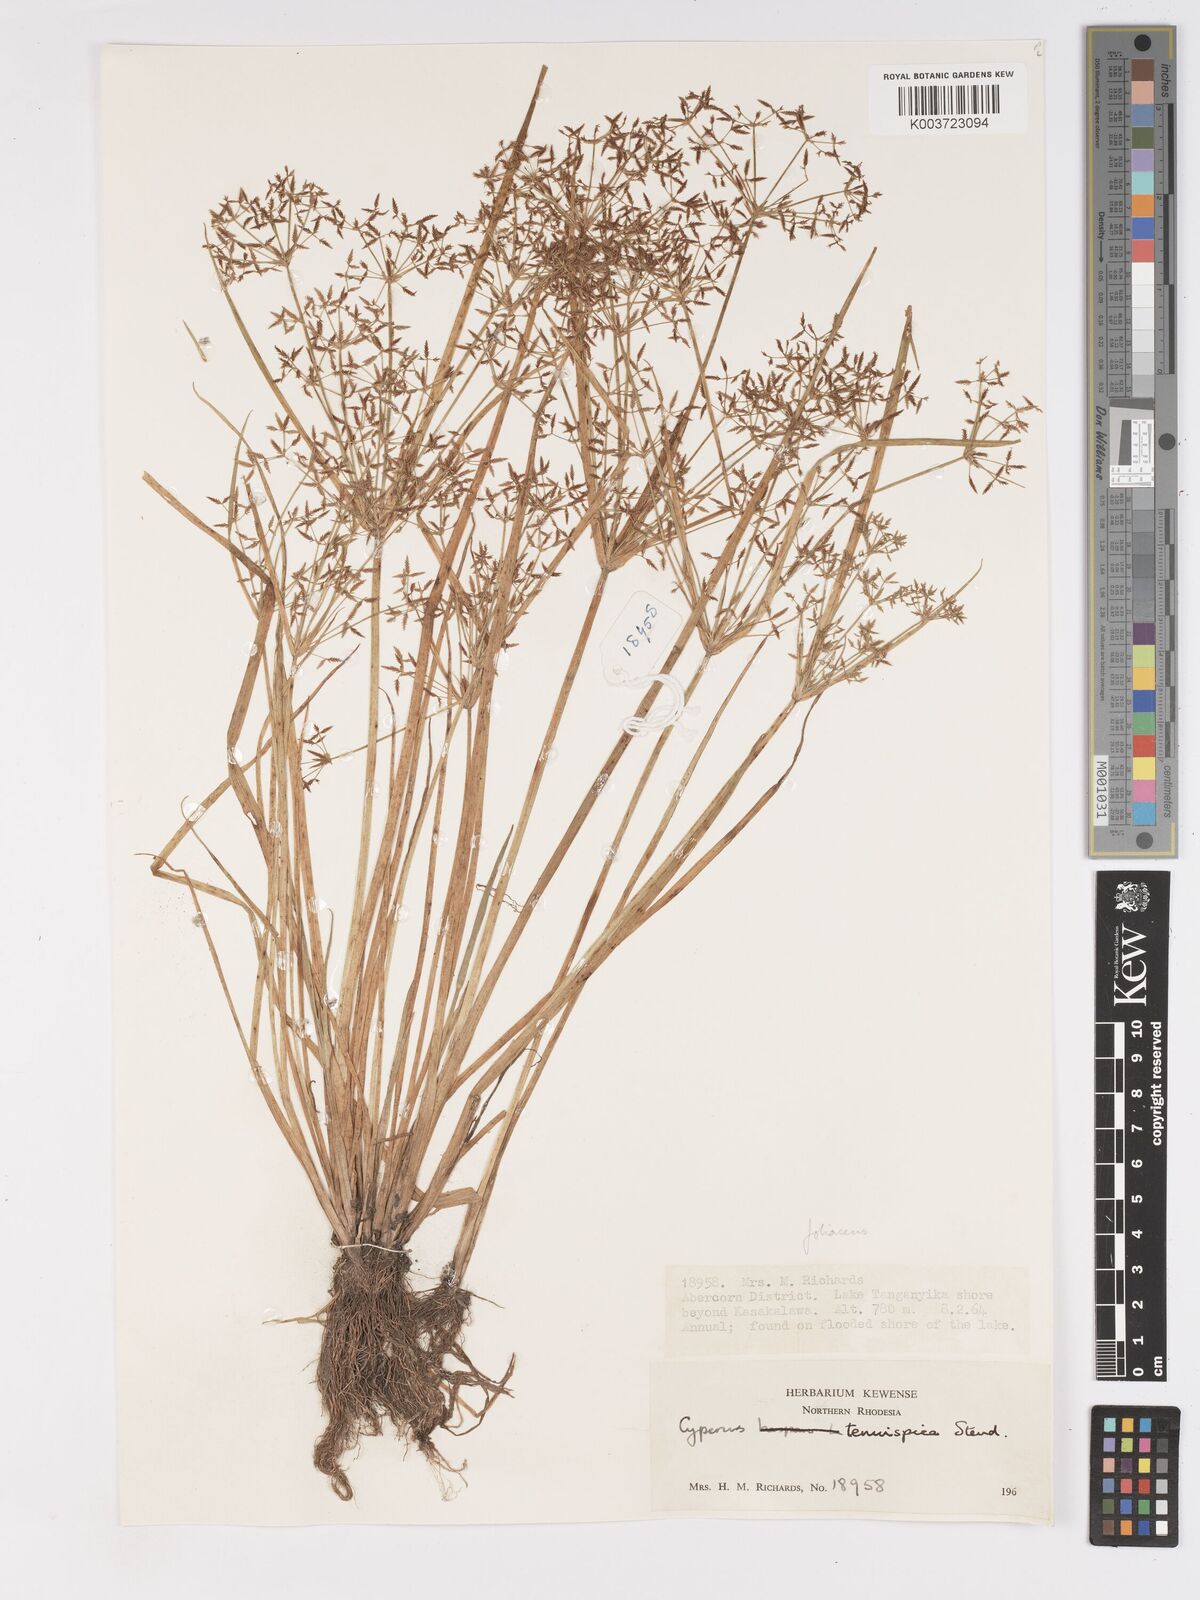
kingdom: Plantae
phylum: Tracheophyta
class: Liliopsida
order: Poales
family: Cyperaceae
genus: Cyperus
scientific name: Cyperus foliaceus
